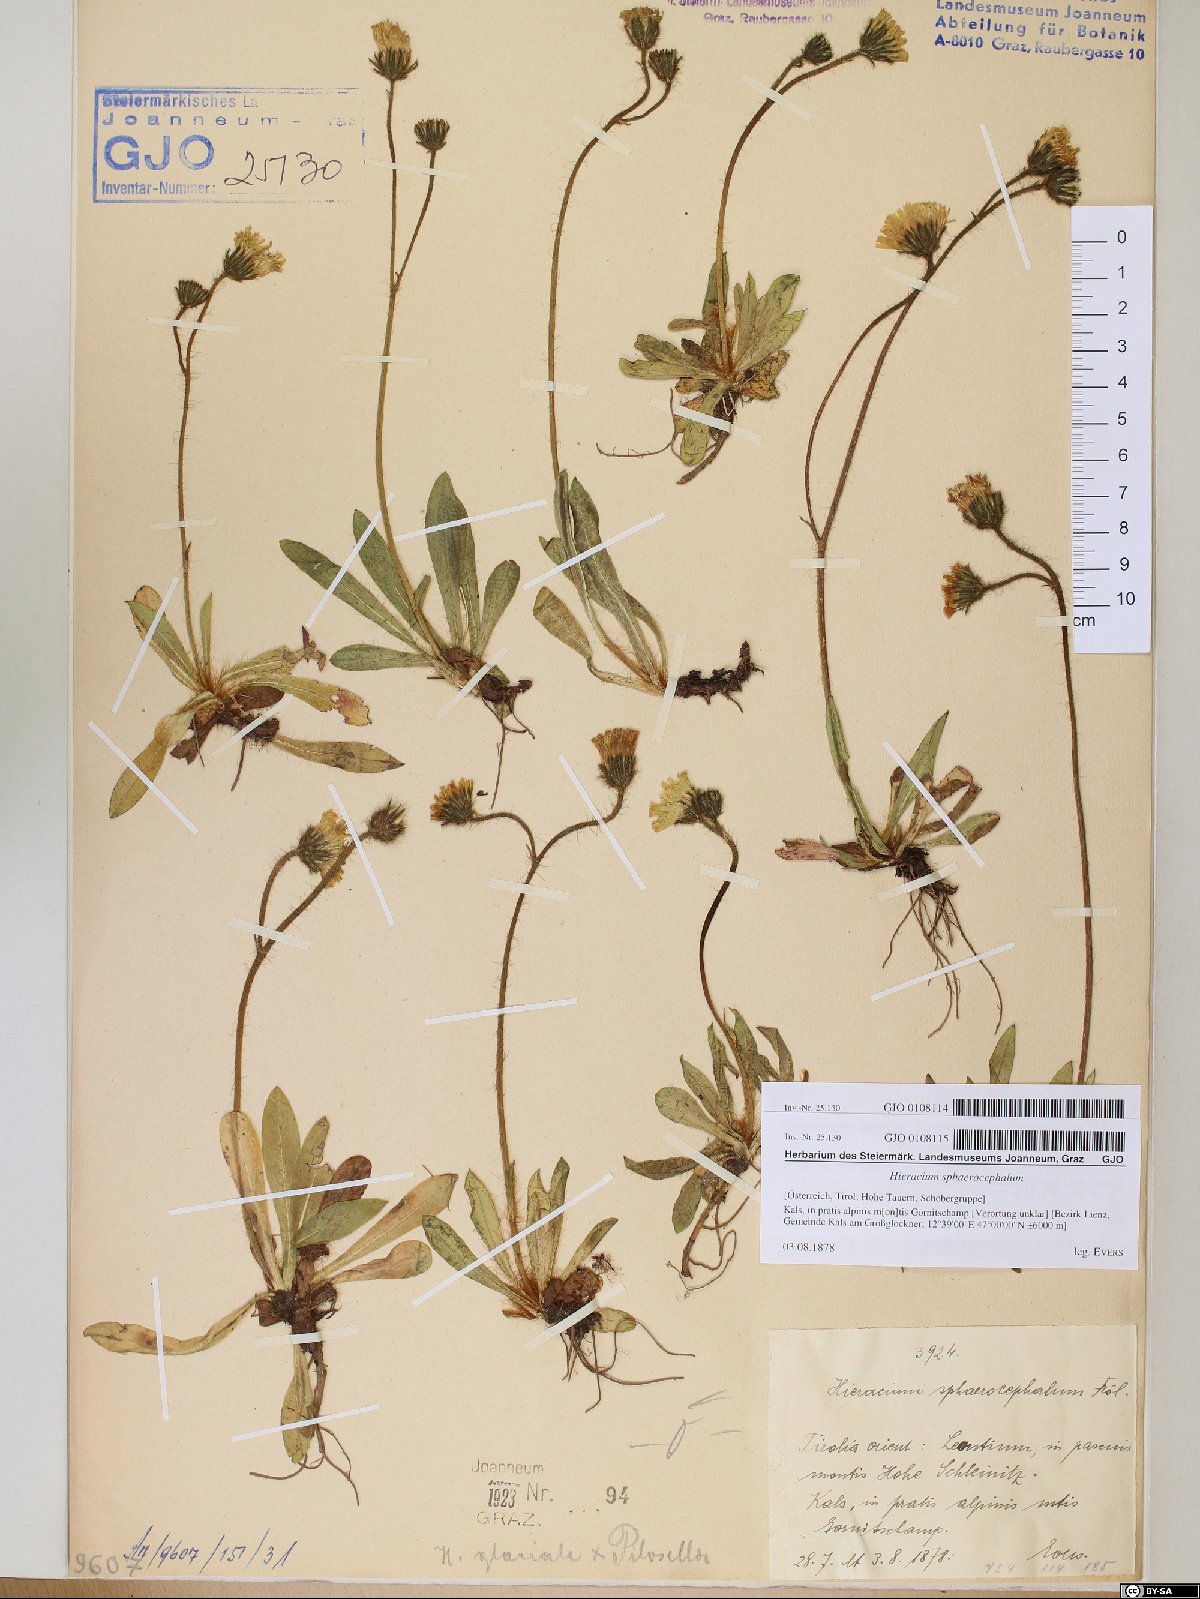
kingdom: Plantae
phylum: Tracheophyta
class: Magnoliopsida
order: Asterales
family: Asteraceae
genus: Pilosella
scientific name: Pilosella sphaerocephala
